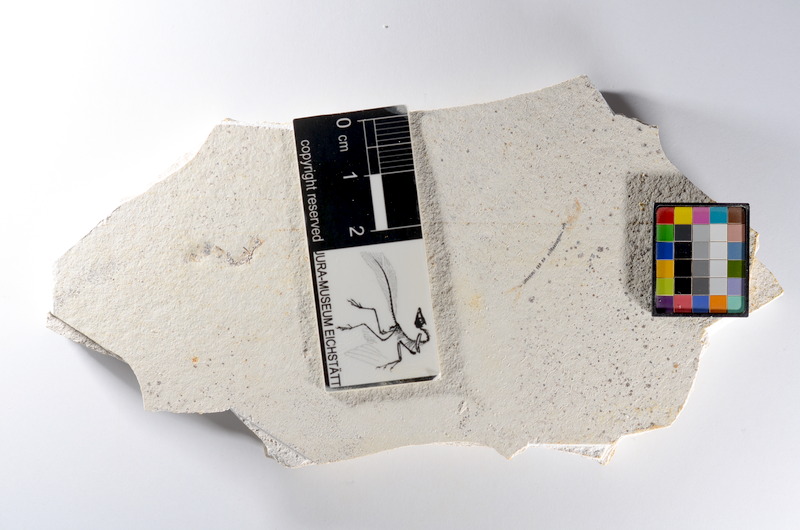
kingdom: Animalia
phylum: Chordata
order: Salmoniformes
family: Orthogonikleithridae
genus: Orthogonikleithrus
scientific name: Orthogonikleithrus hoelli
